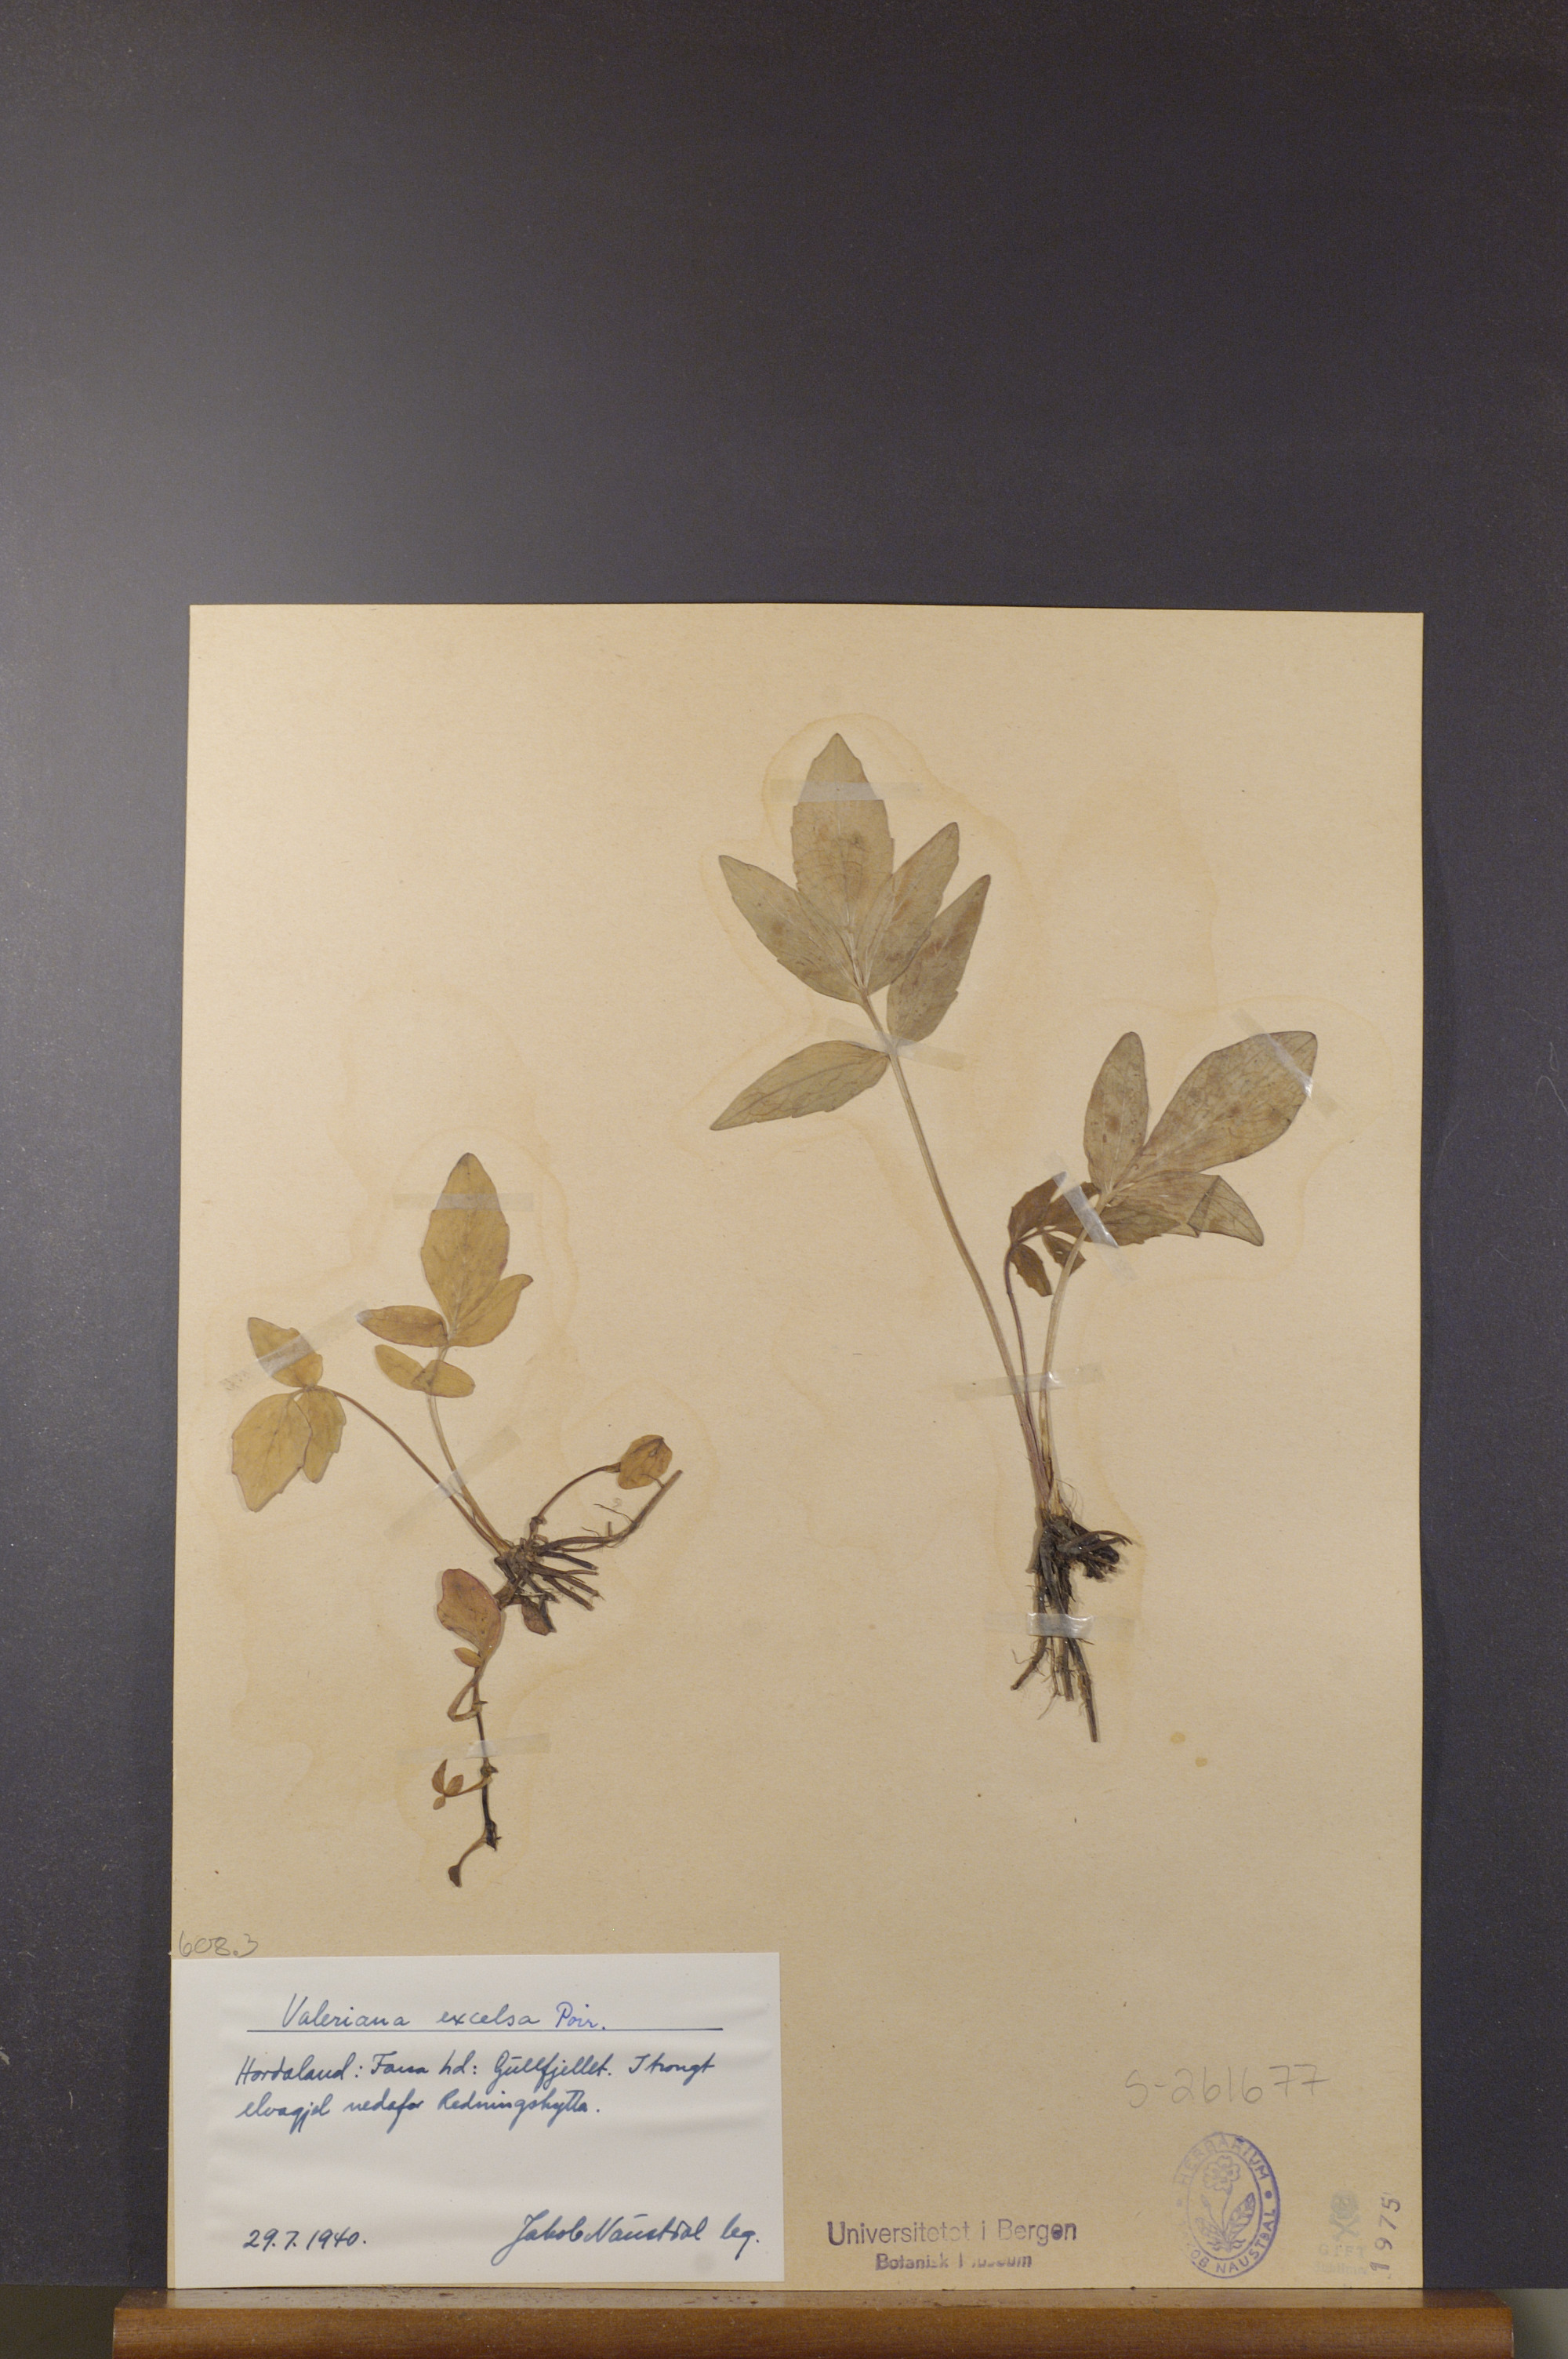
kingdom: Plantae
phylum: Tracheophyta
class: Magnoliopsida
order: Dipsacales
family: Caprifoliaceae
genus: Valeriana
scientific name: Valeriana sambucifolia
